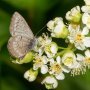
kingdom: Animalia
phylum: Arthropoda
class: Insecta
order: Lepidoptera
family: Lycaenidae
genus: Celastrina
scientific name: Celastrina lucia
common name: Northern Spring Azure
